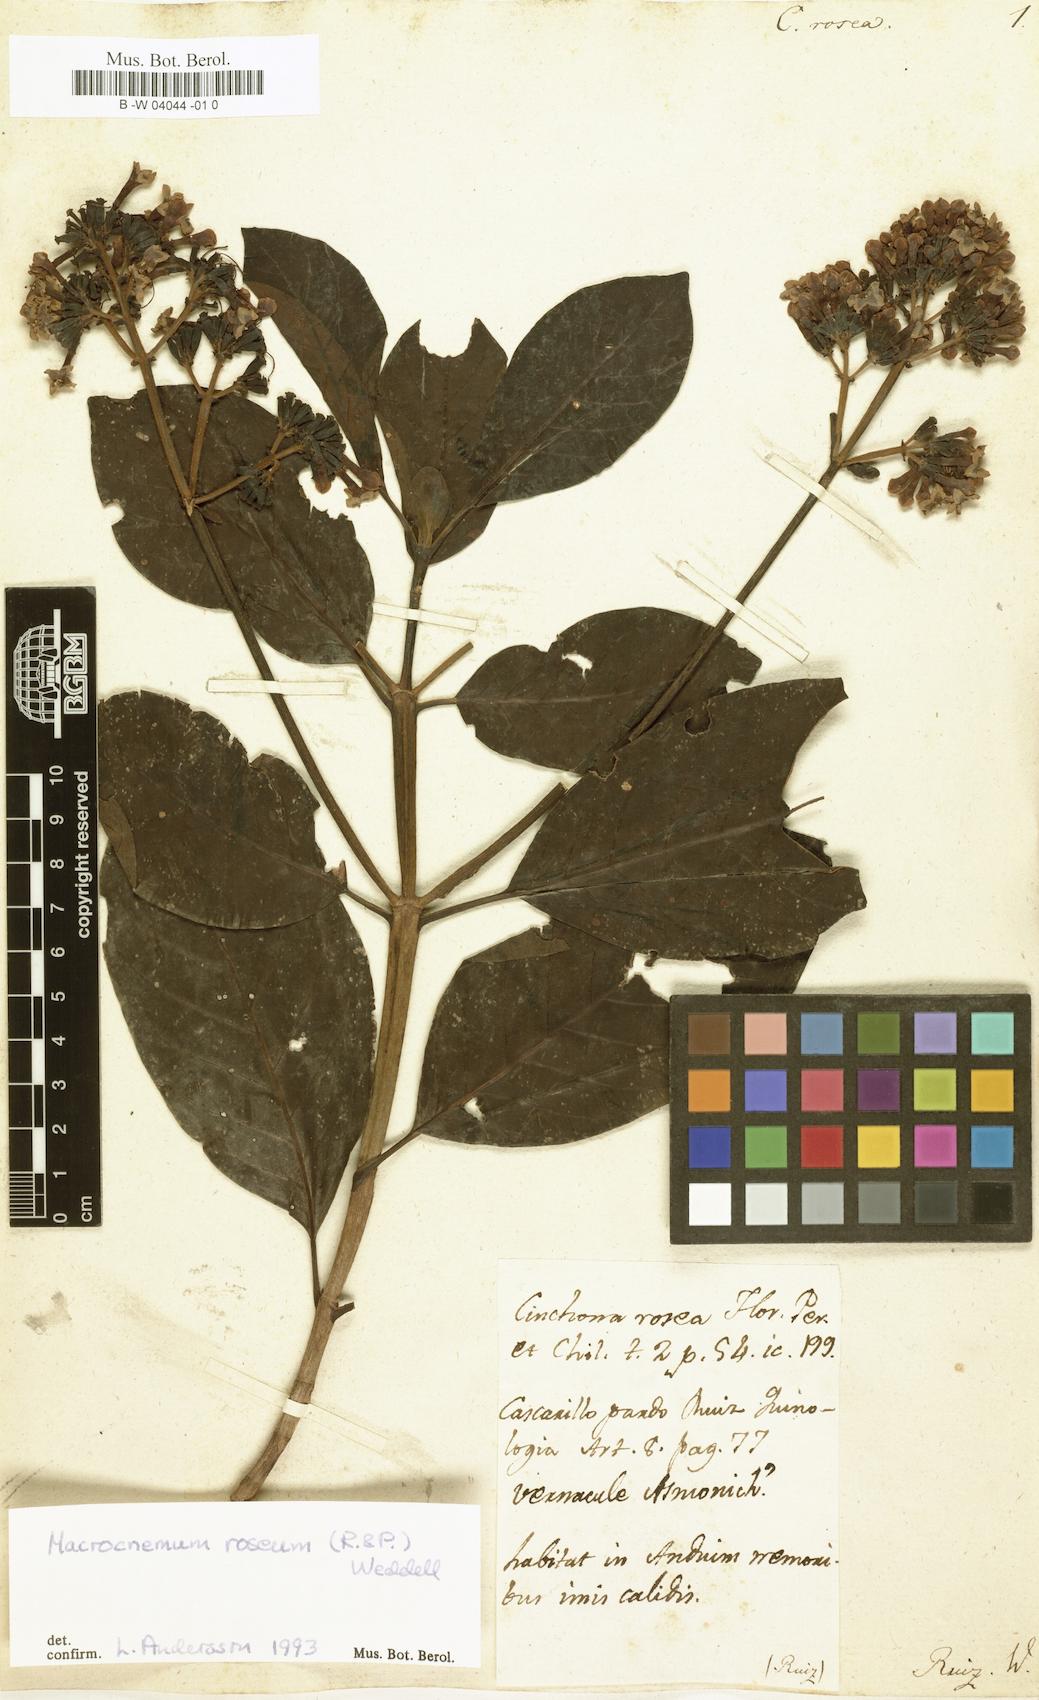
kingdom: Plantae
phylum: Tracheophyta
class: Magnoliopsida
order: Gentianales
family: Rubiaceae
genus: Macrocnemum
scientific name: Macrocnemum roseum
